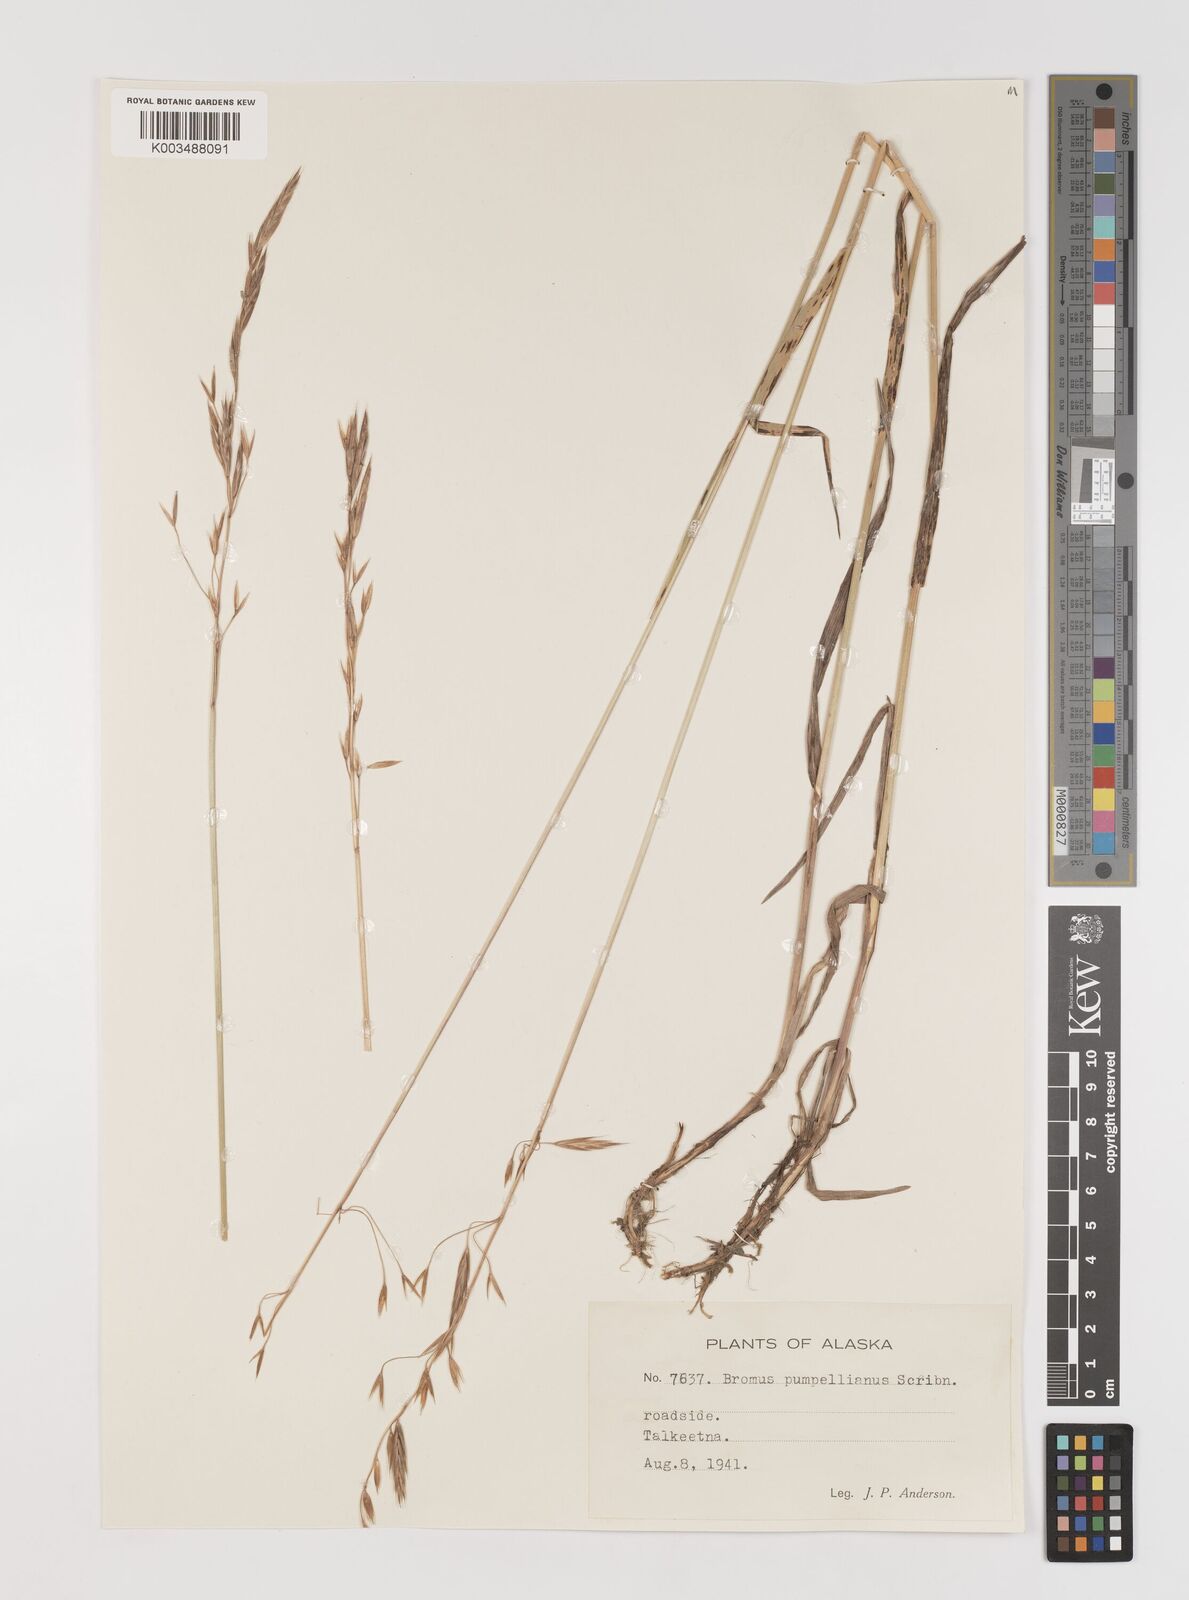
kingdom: Plantae
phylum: Tracheophyta
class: Liliopsida
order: Poales
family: Poaceae
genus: Bromus
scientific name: Bromus pumpellianus
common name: Pumpelly's brome
